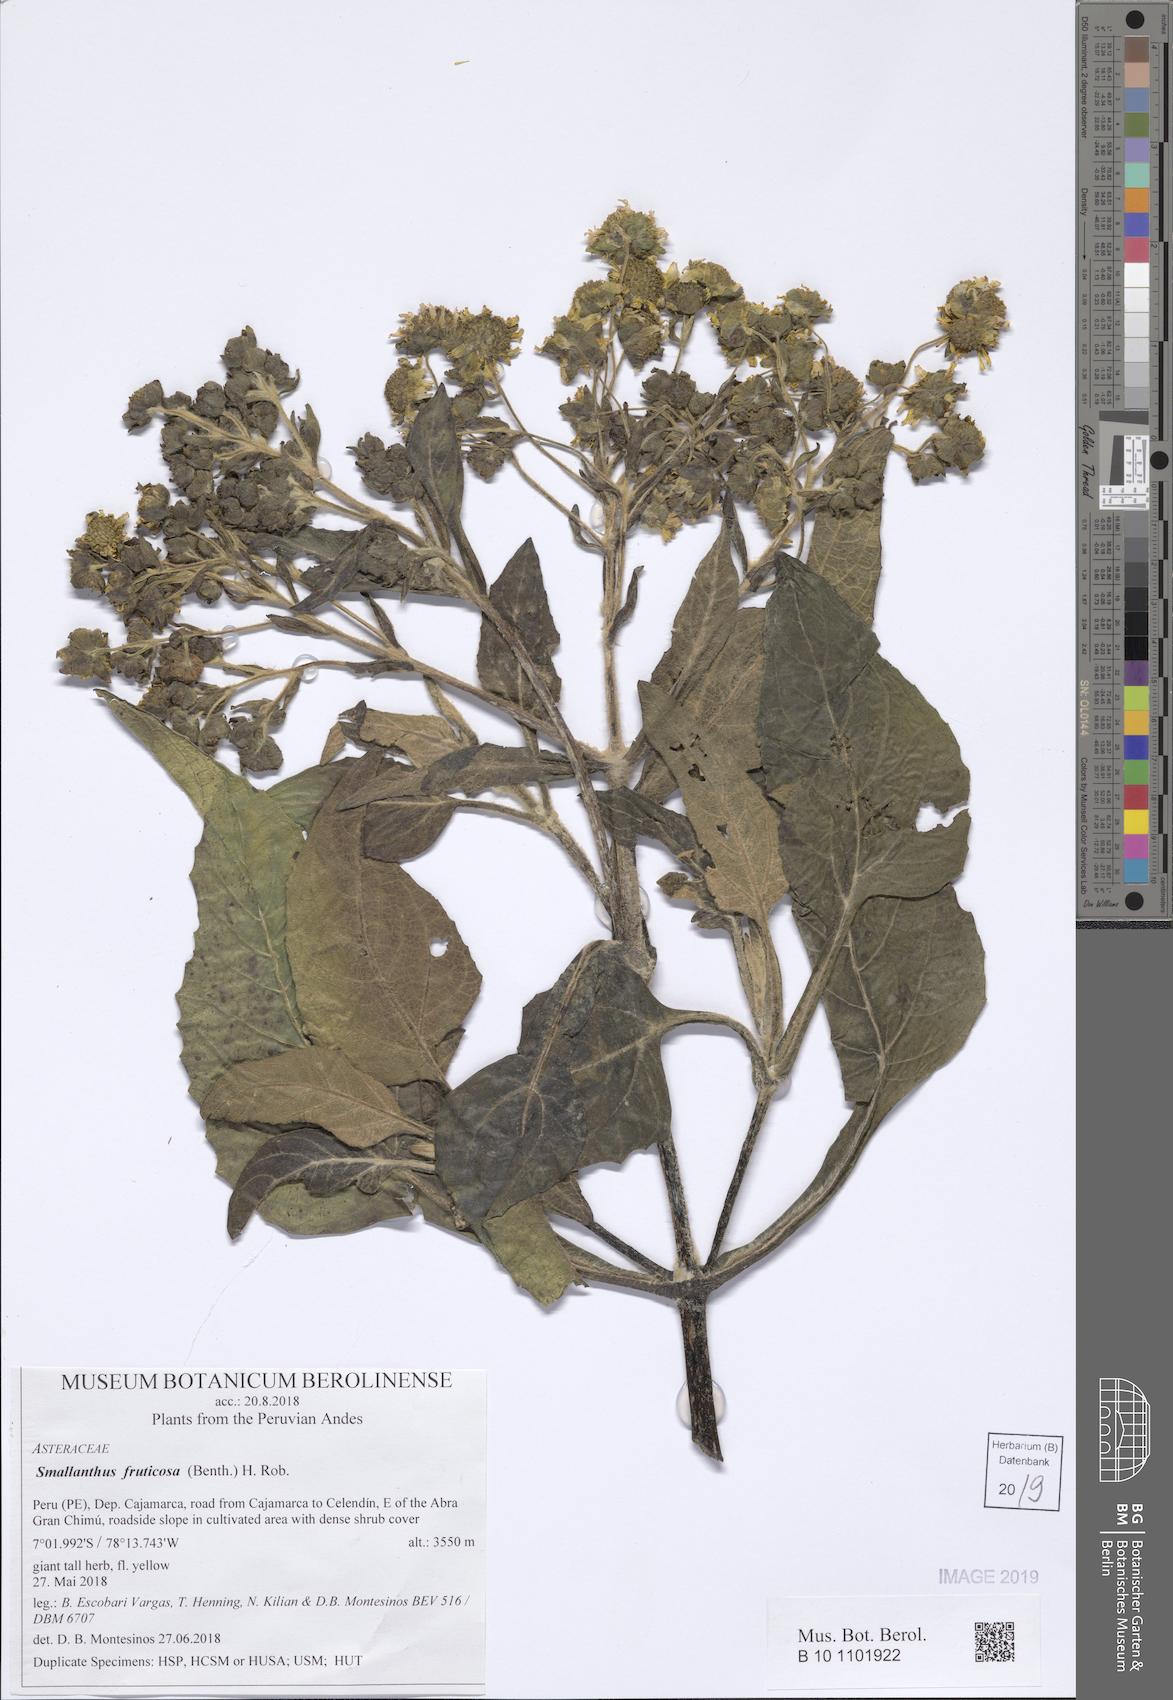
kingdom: Plantae
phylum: Tracheophyta
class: Magnoliopsida
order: Asterales
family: Asteraceae
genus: Smallanthus
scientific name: Smallanthus fruticosus
